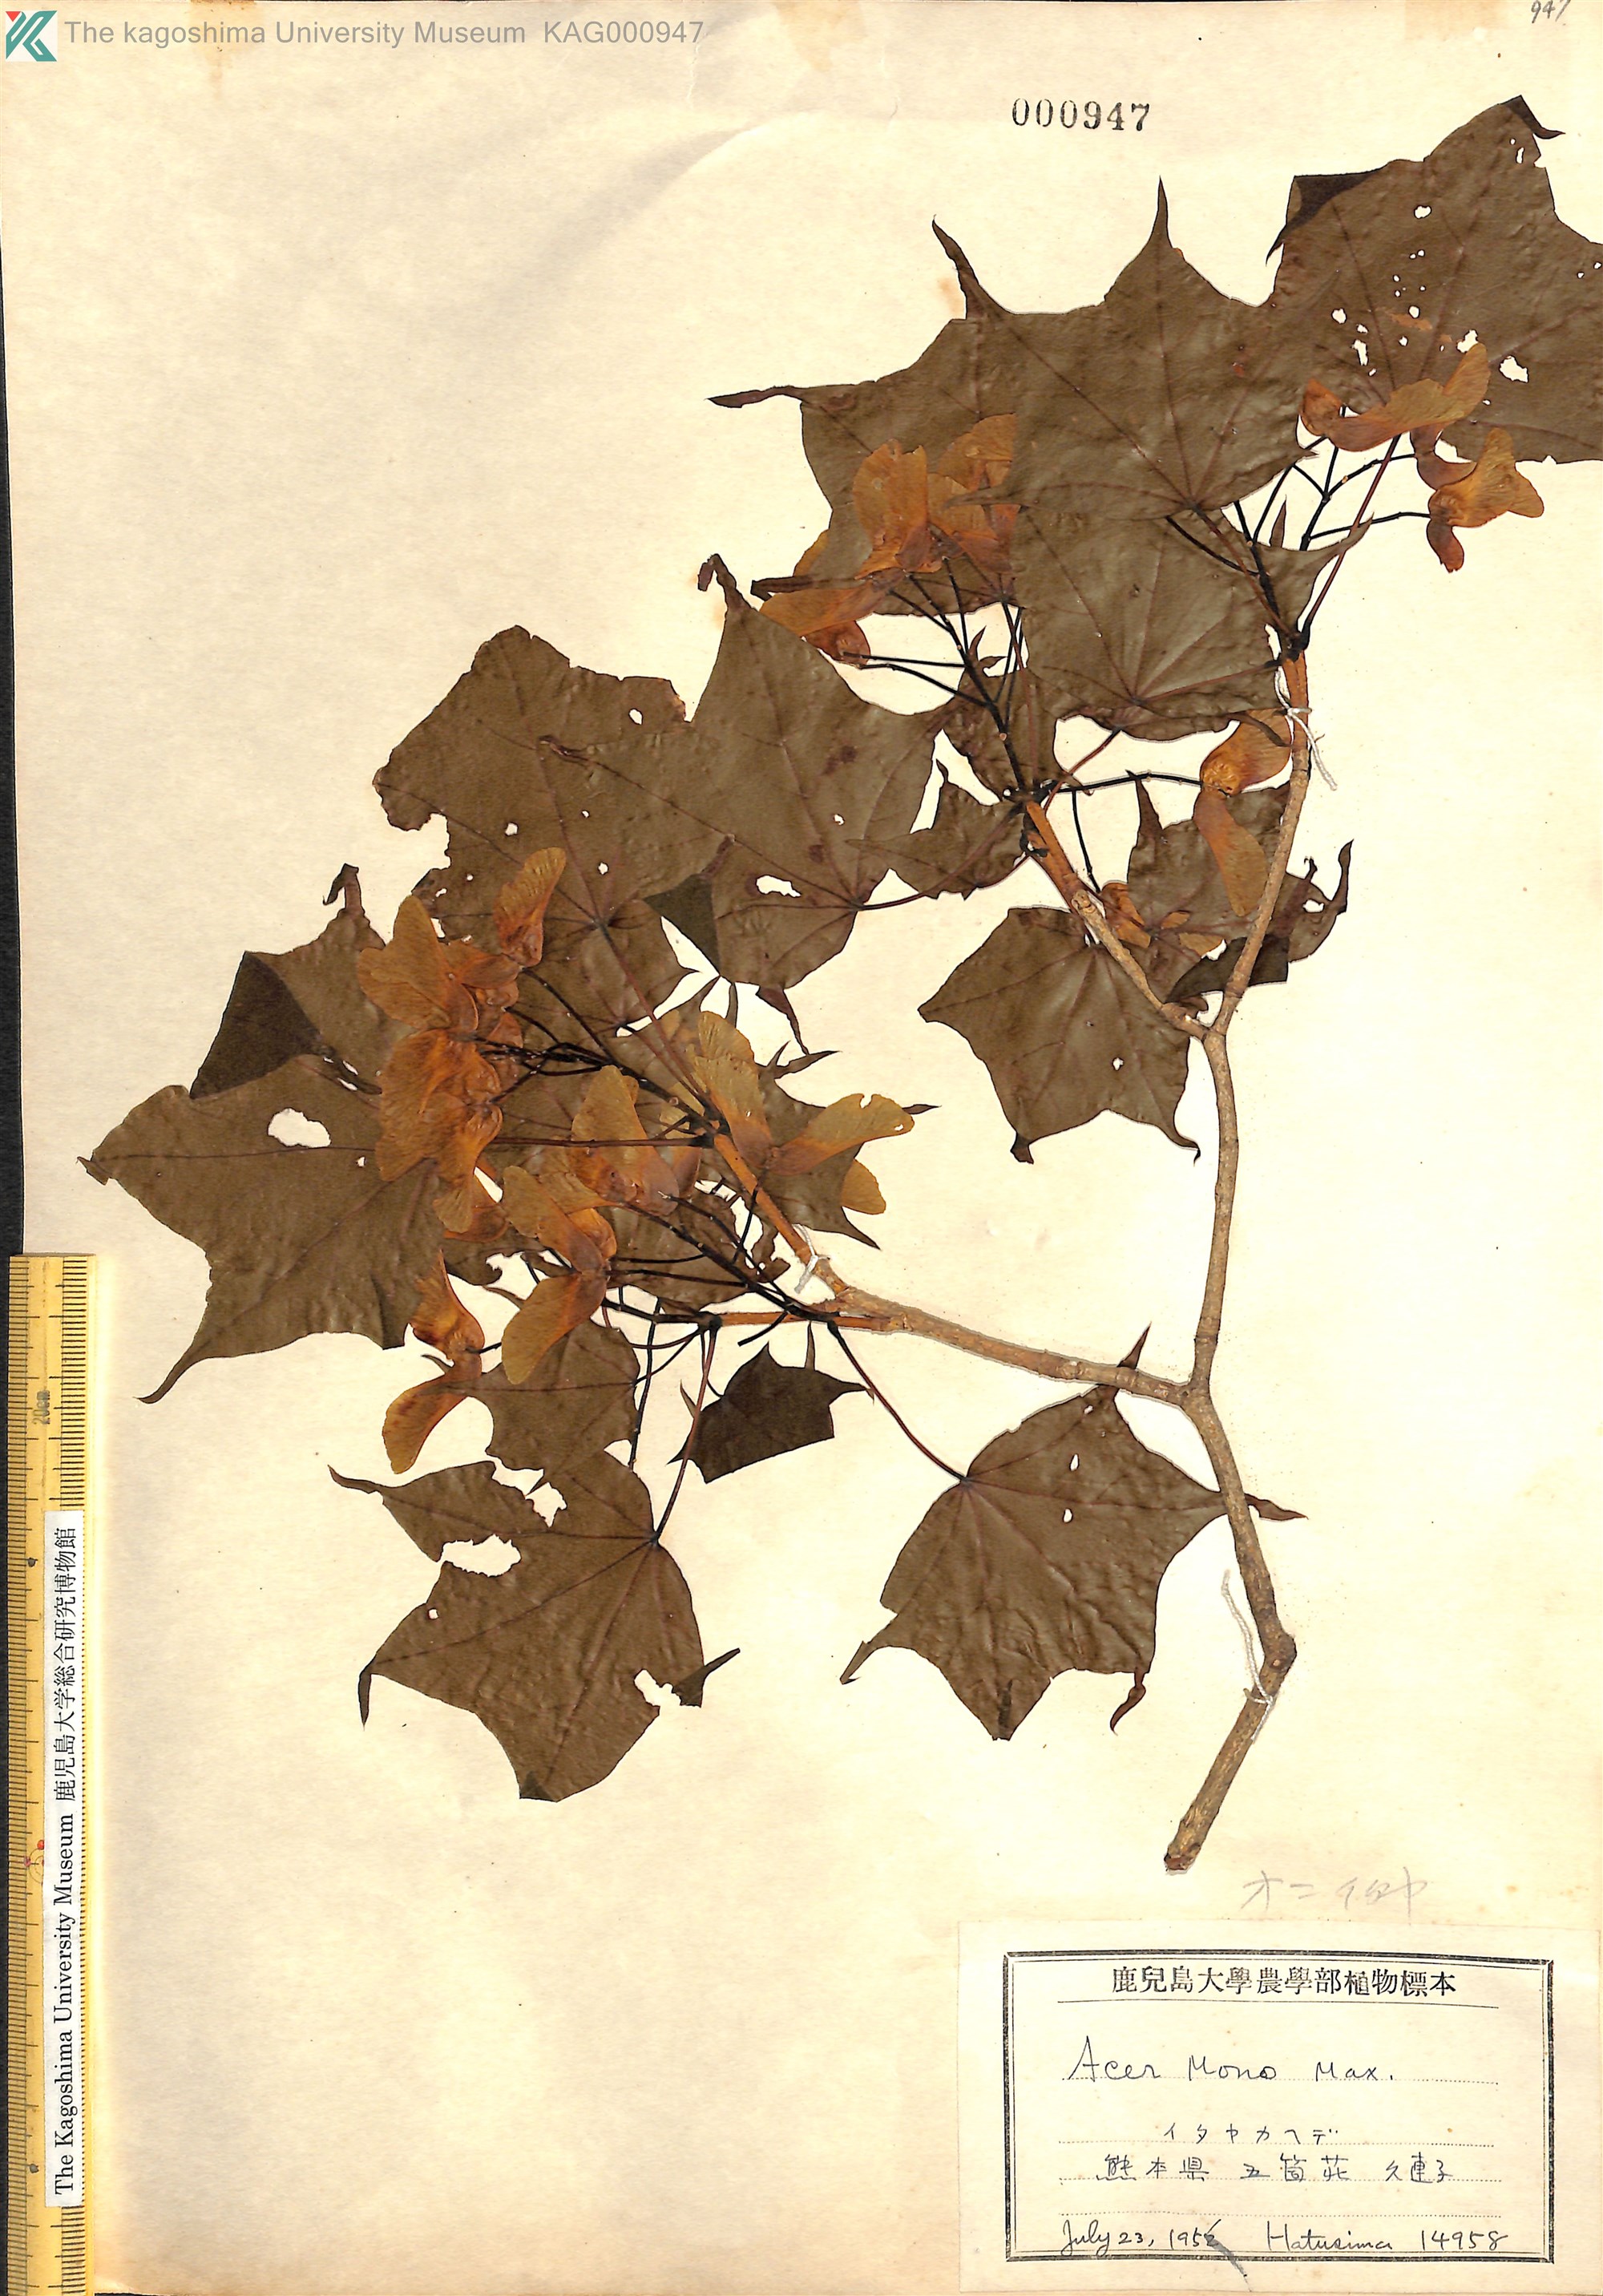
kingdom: Plantae
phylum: Tracheophyta
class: Magnoliopsida
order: Sapindales
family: Sapindaceae
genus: Acer
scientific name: Acer pictum
